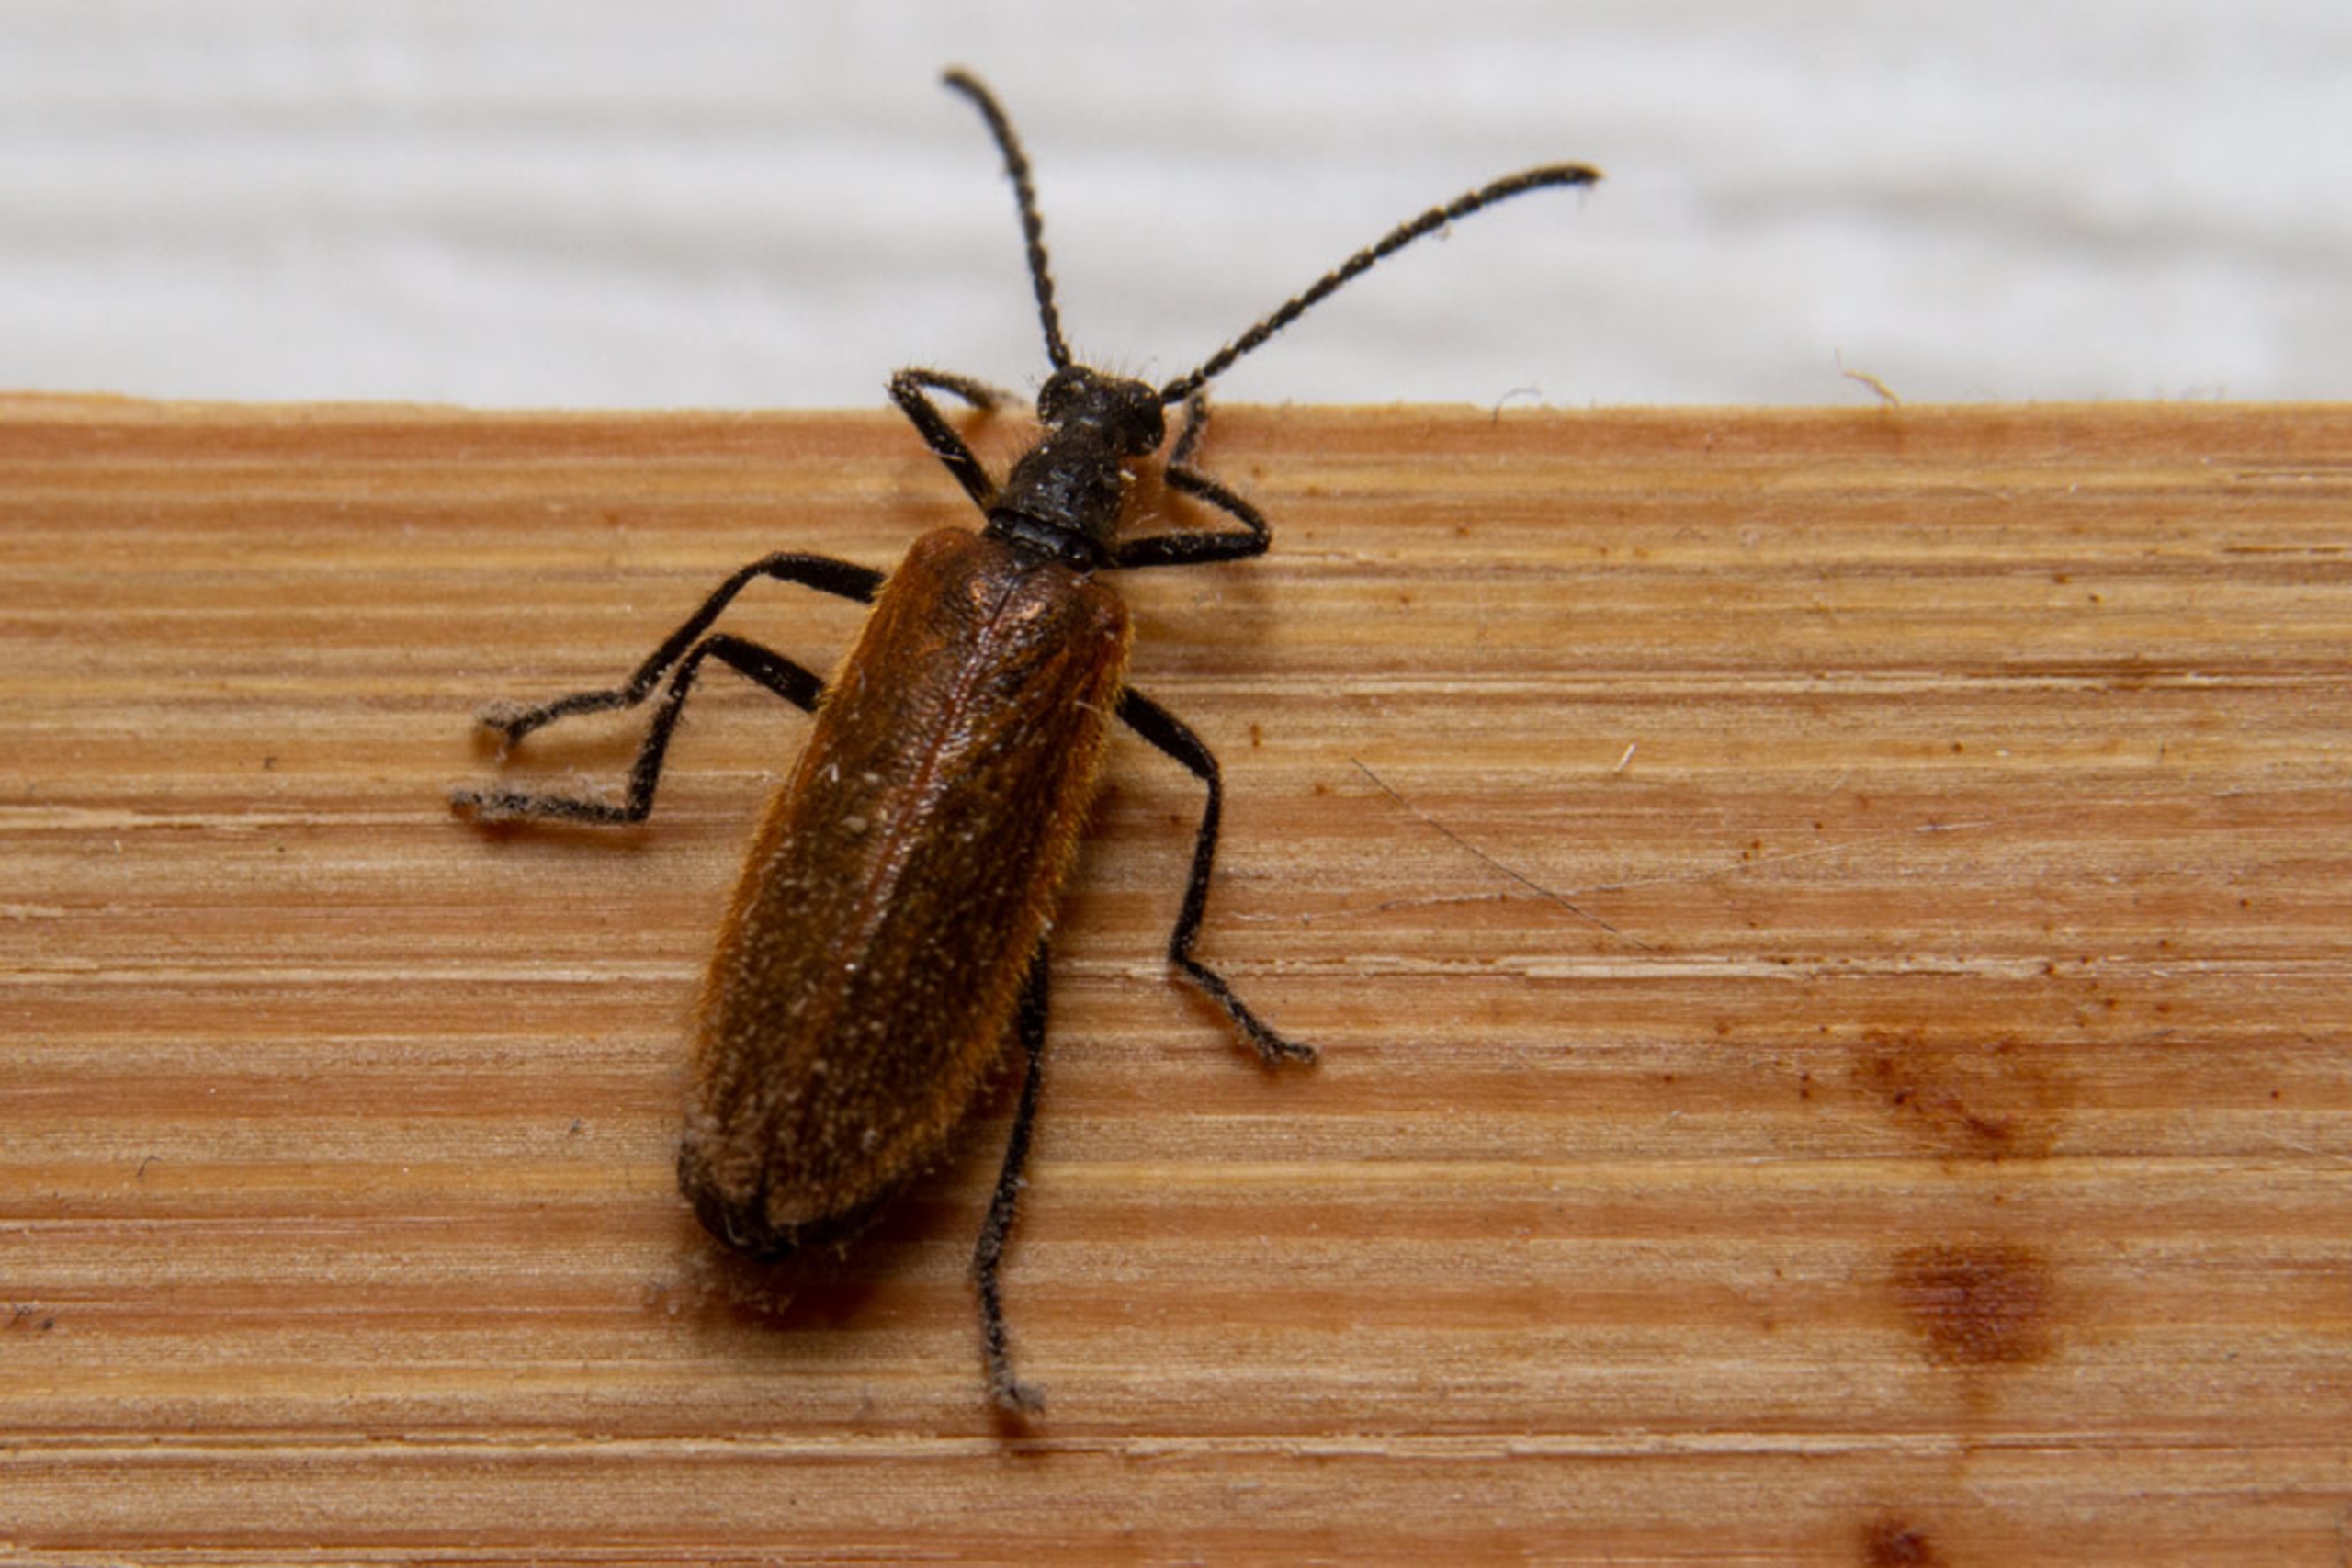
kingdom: Animalia
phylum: Arthropoda
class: Insecta
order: Coleoptera
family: Tenebrionidae
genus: Lagria
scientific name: Lagria hirta
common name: Håret skyggebille
